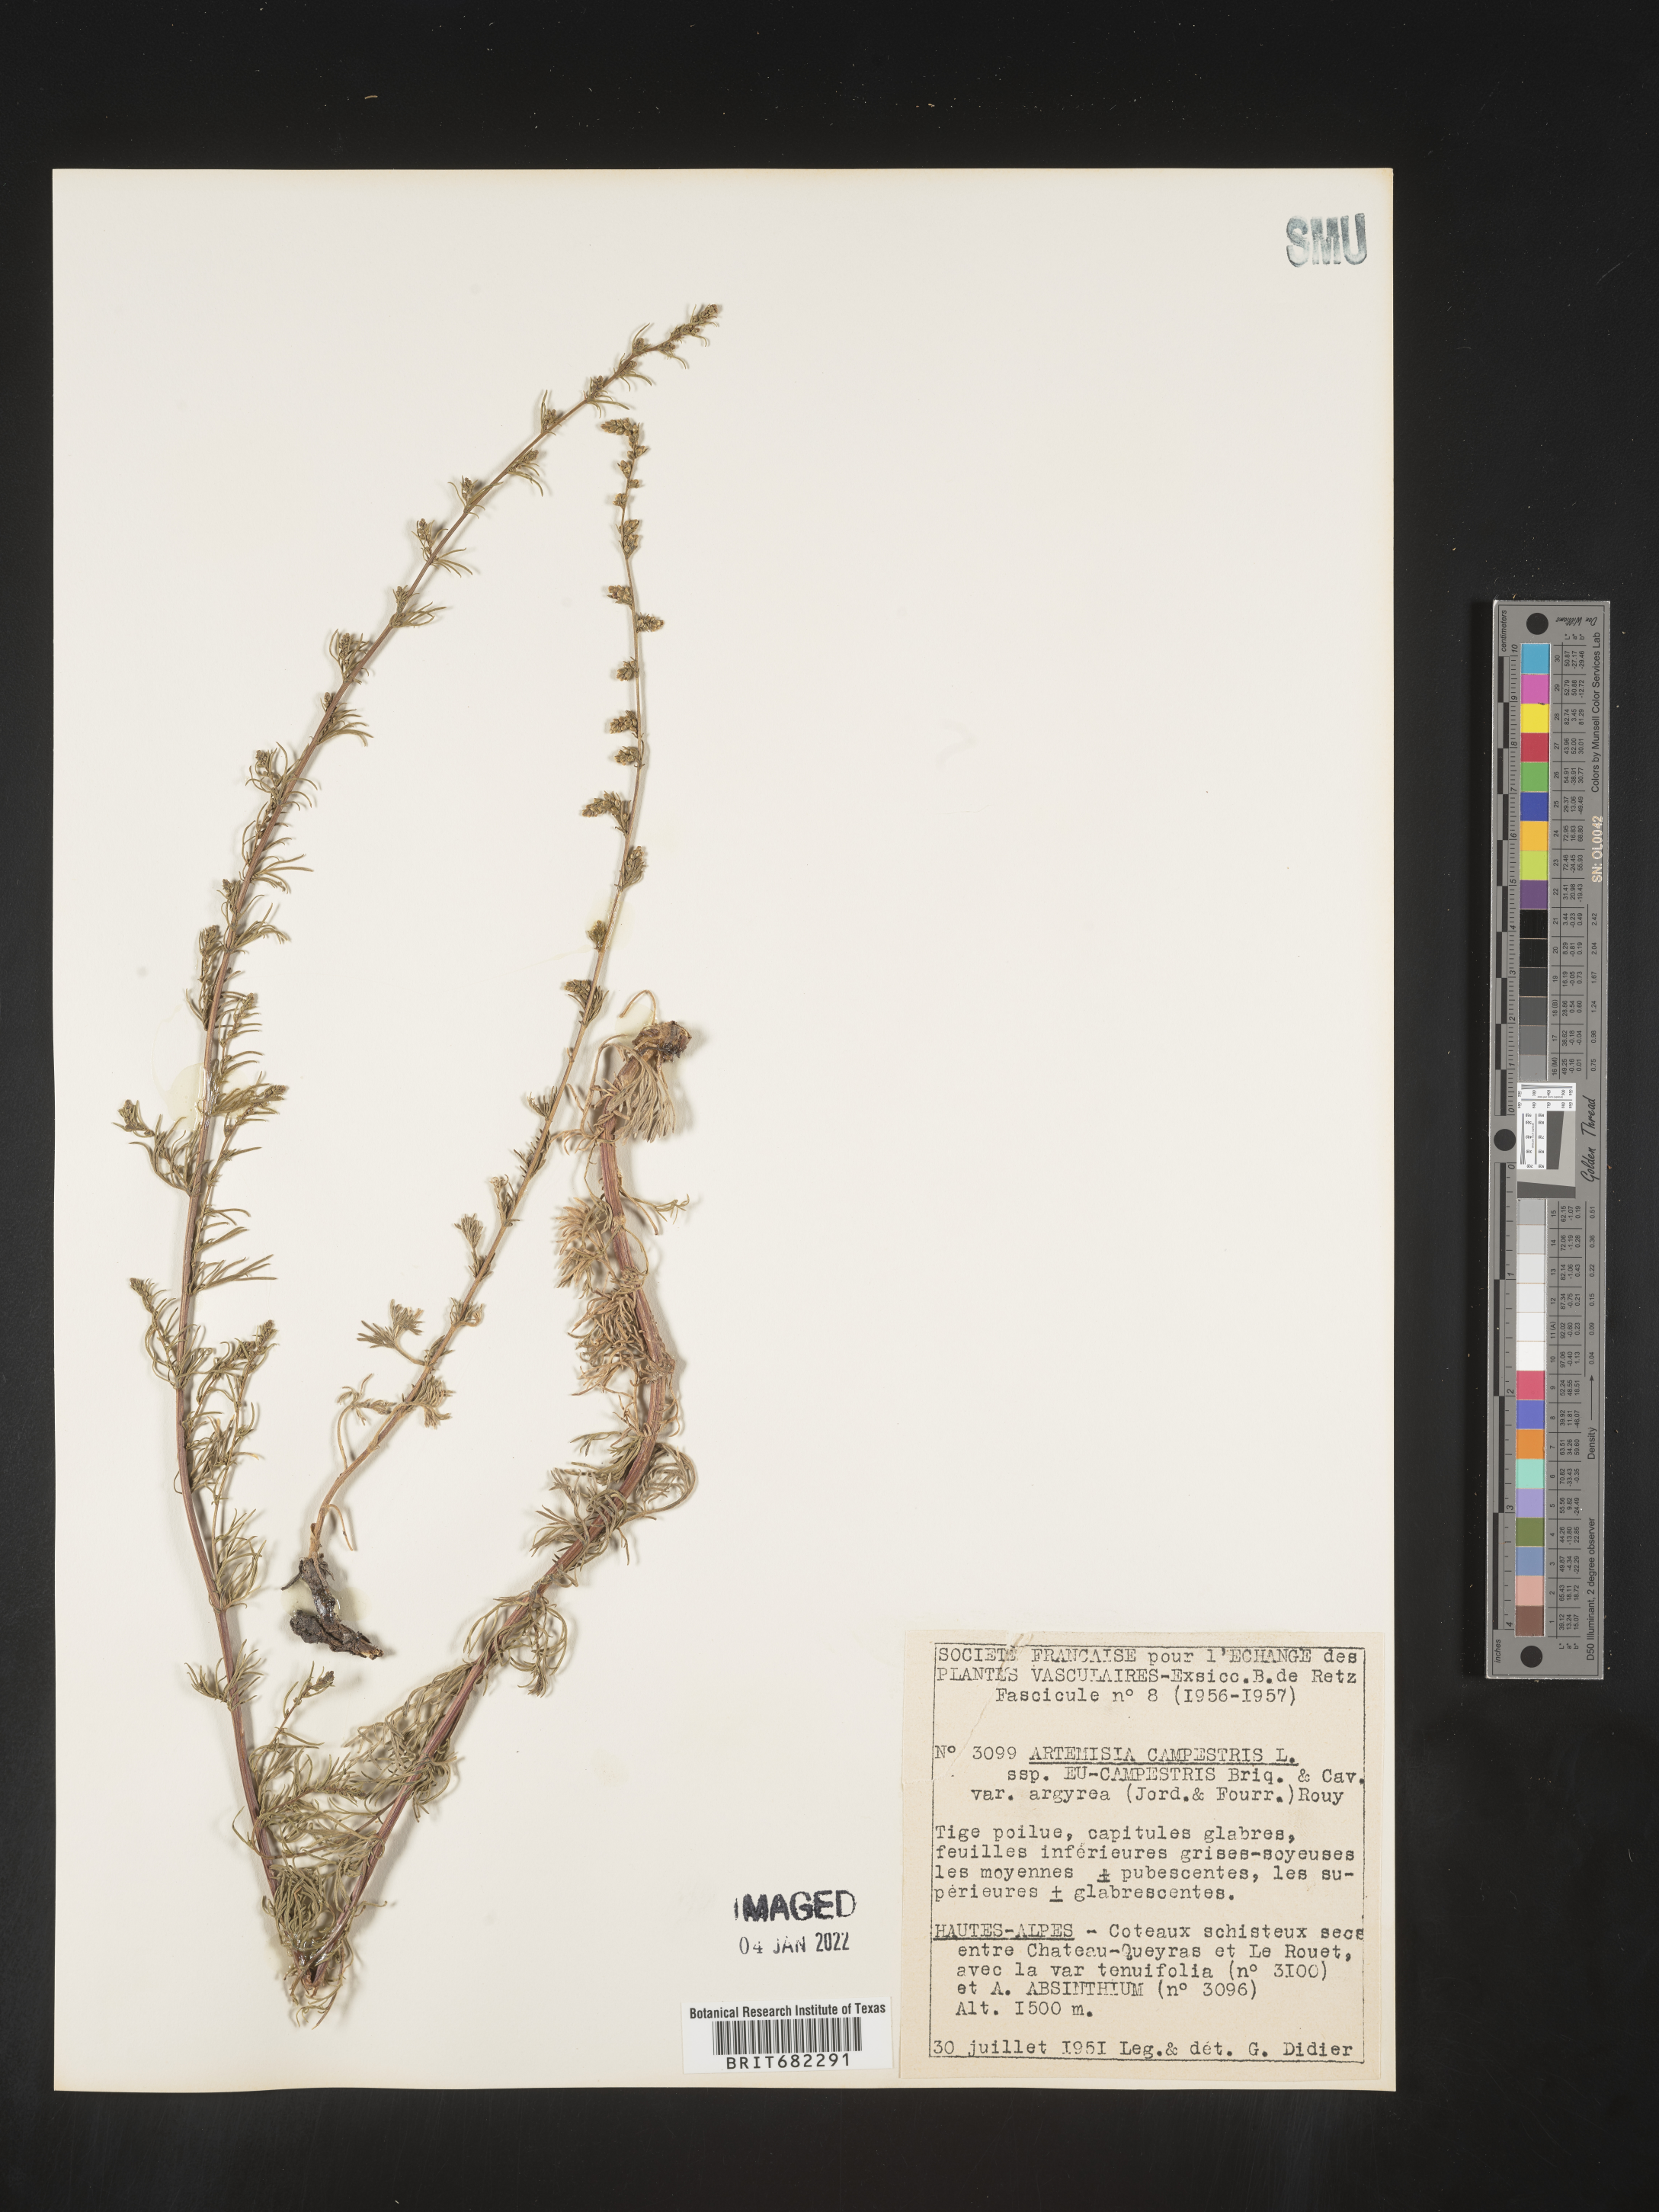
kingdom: Plantae
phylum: Tracheophyta
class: Magnoliopsida
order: Asterales
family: Asteraceae
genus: Artemisia
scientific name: Artemisia campestris
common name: Field wormwood
